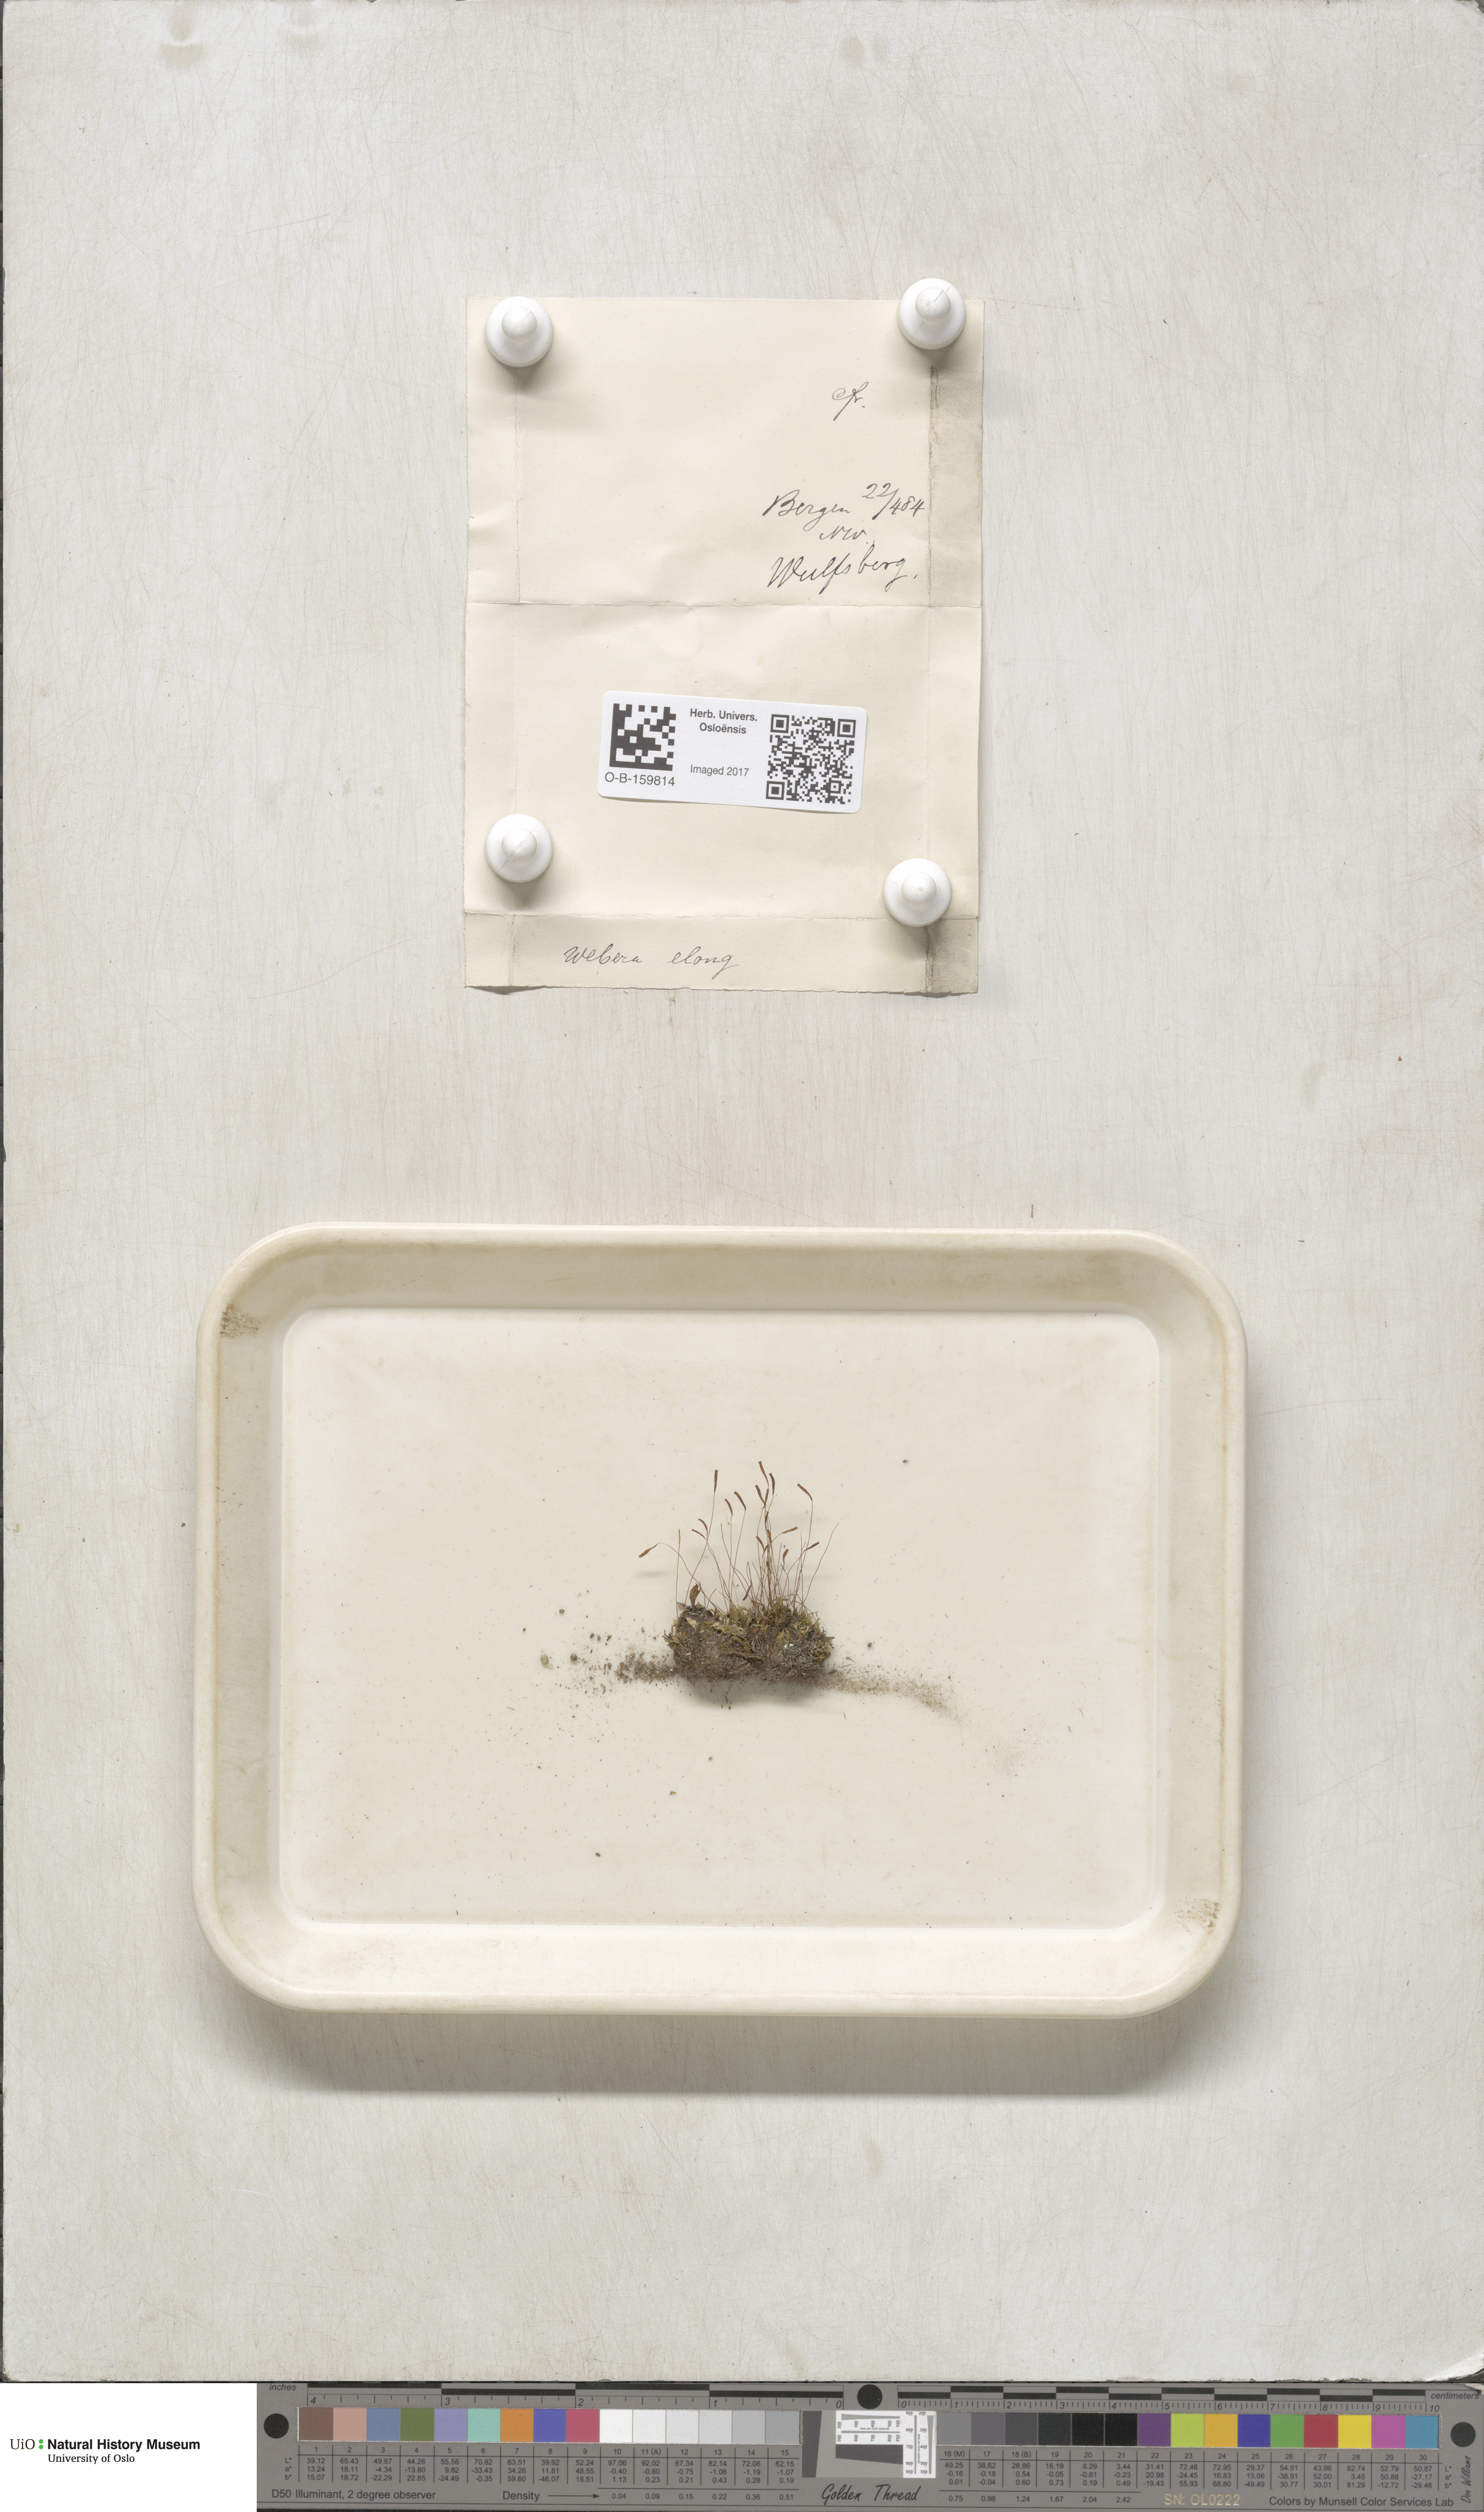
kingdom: Plantae
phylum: Bryophyta
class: Bryopsida
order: Bryales
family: Mniaceae
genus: Pohlia
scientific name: Pohlia elongata
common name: Long-fruited thread-moss
